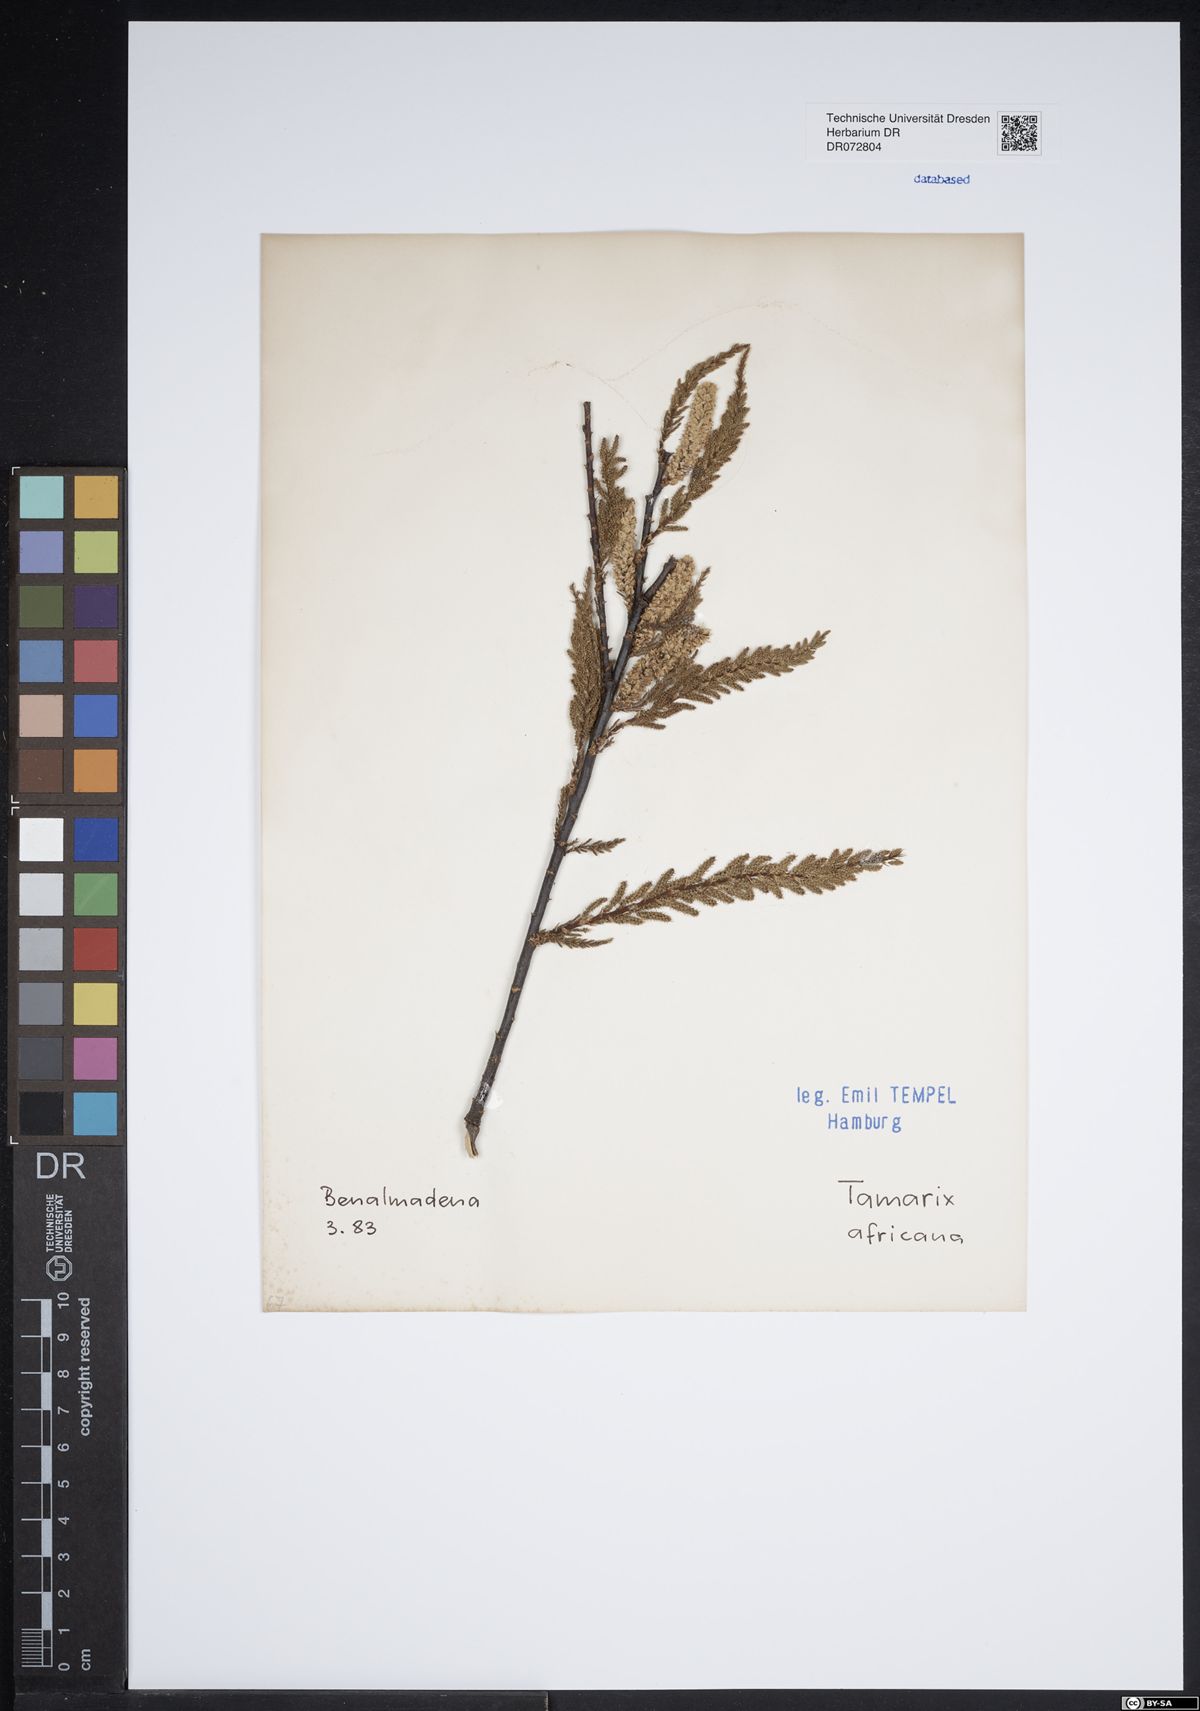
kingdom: Plantae
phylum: Tracheophyta
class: Magnoliopsida
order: Caryophyllales
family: Tamaricaceae
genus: Tamarix
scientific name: Tamarix africana
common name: African tamarisk
